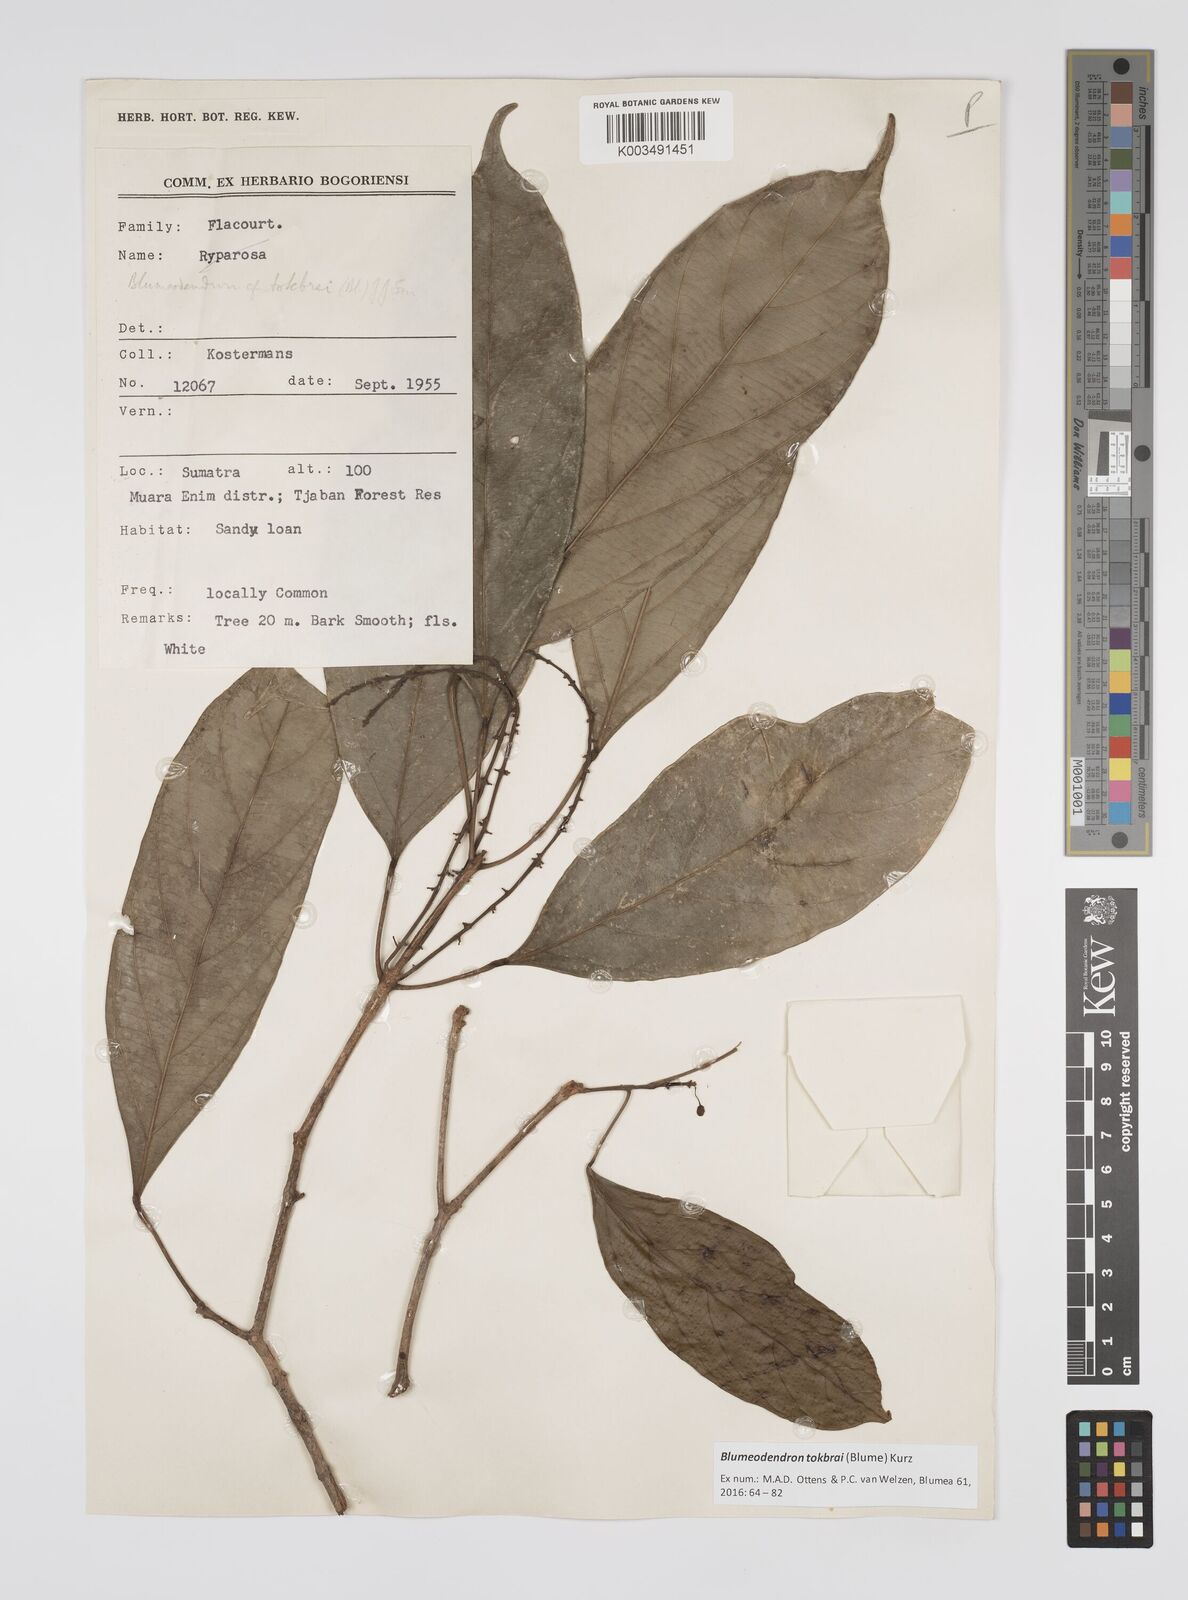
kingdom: Plantae
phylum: Tracheophyta
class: Magnoliopsida
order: Malpighiales
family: Euphorbiaceae
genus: Blumeodendron
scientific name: Blumeodendron tokbrai
